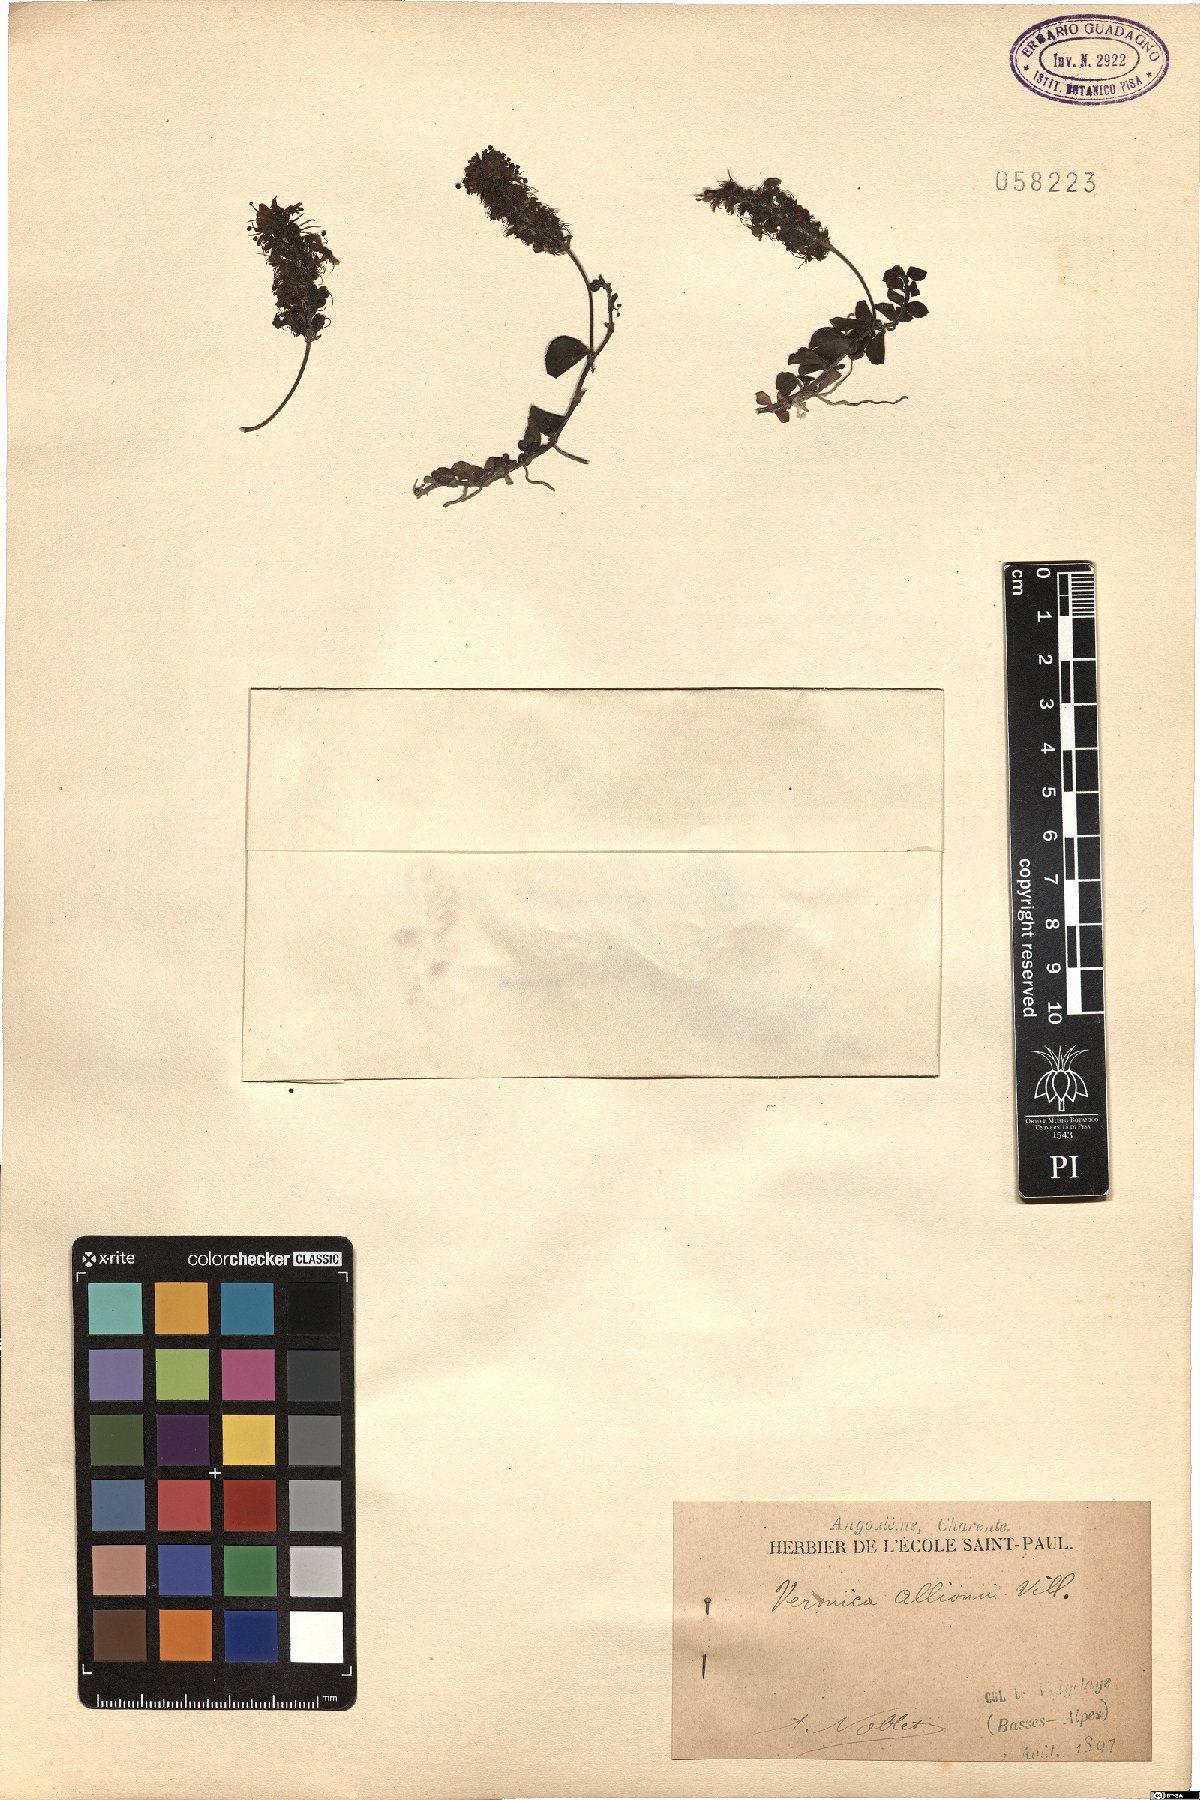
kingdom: Plantae
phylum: Tracheophyta
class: Magnoliopsida
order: Lamiales
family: Plantaginaceae
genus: Veronica
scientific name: Veronica allionii
